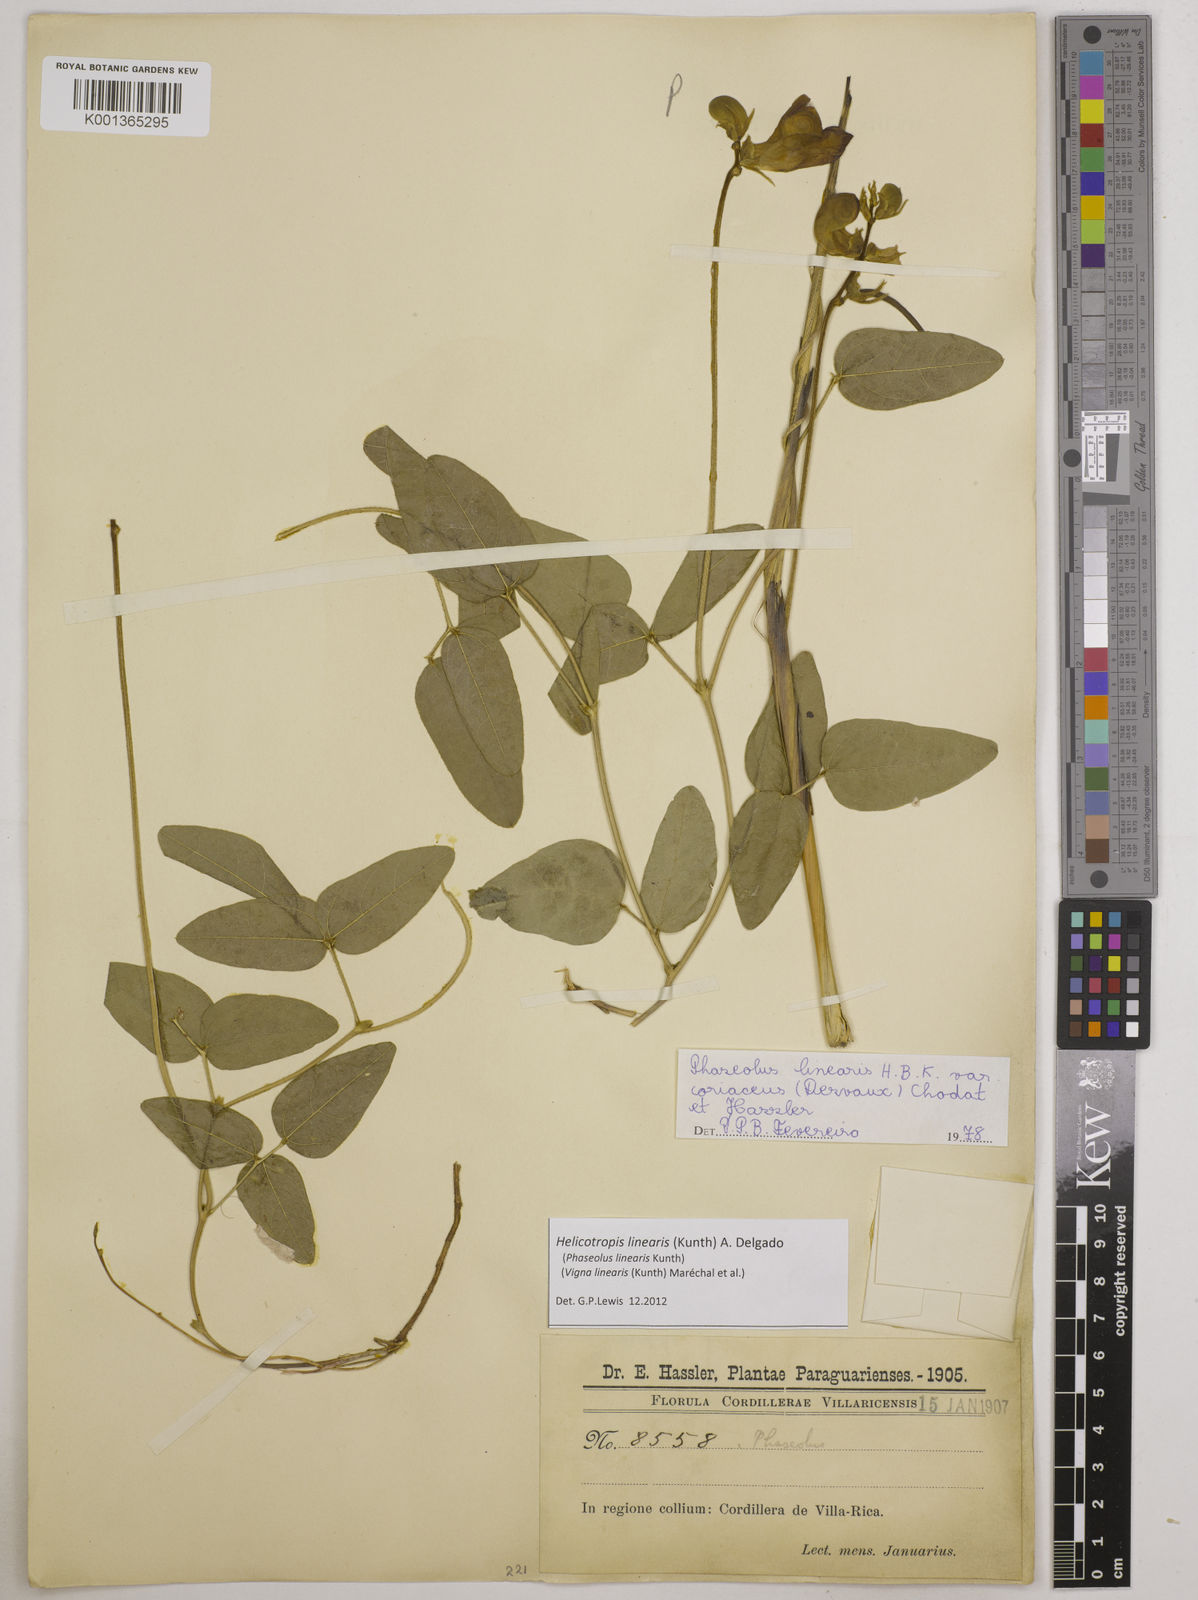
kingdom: Plantae
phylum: Tracheophyta
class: Magnoliopsida
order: Fabales
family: Fabaceae
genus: Helicotropis
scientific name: Helicotropis linearis
